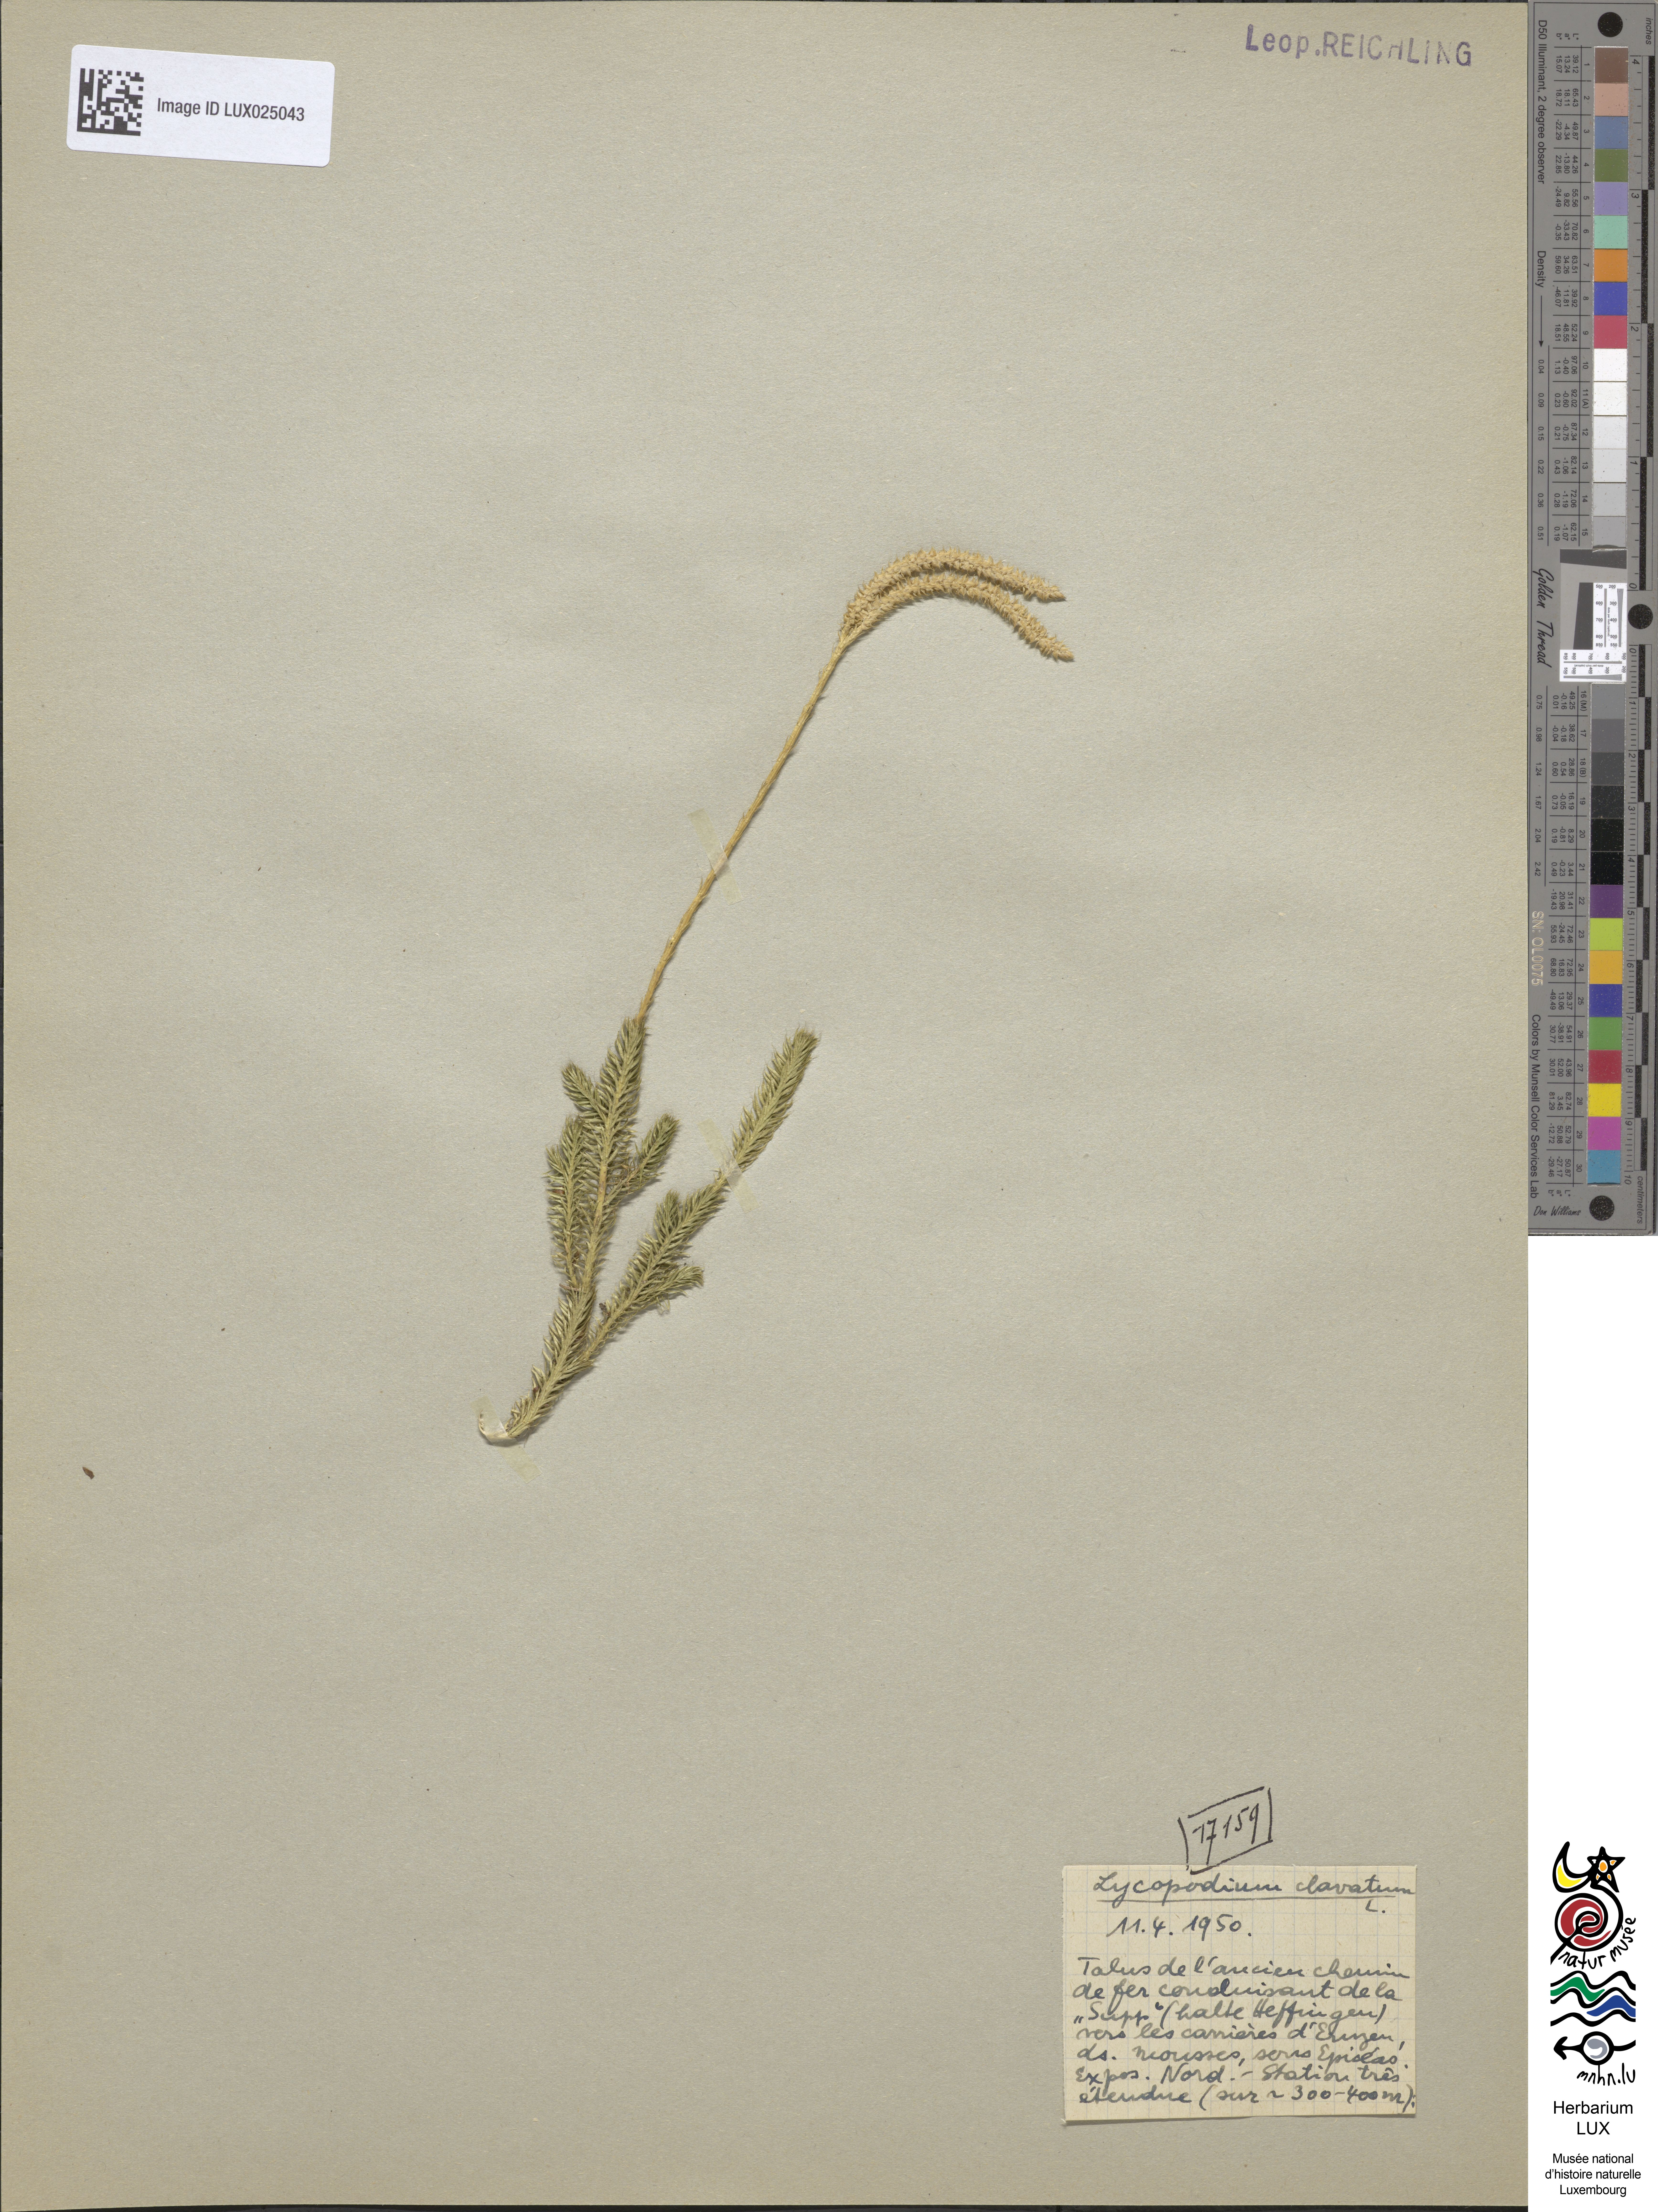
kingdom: Plantae
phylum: Tracheophyta
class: Lycopodiopsida
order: Lycopodiales
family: Lycopodiaceae
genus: Lycopodium
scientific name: Lycopodium clavatum
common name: Stag's-horn clubmoss
